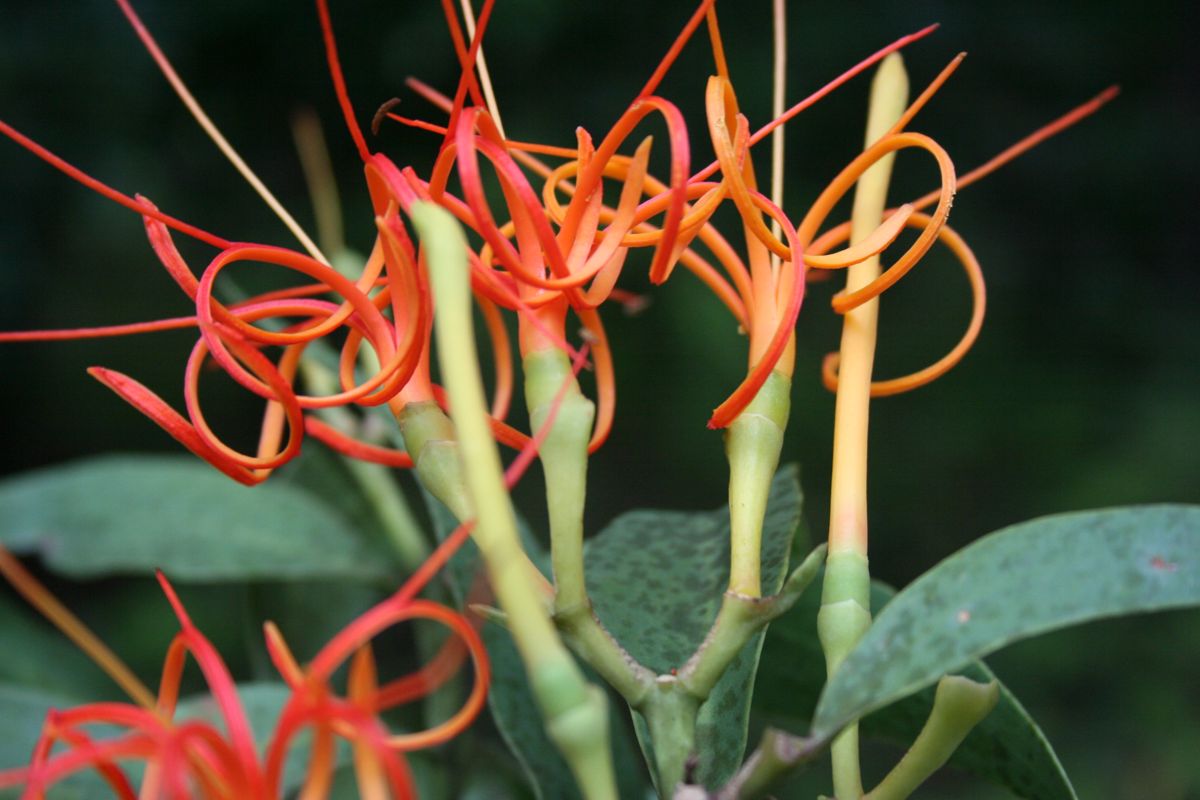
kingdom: Plantae
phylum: Tracheophyta
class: Magnoliopsida
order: Santalales
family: Loranthaceae
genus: Psittacanthus
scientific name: Psittacanthus angustifolius
